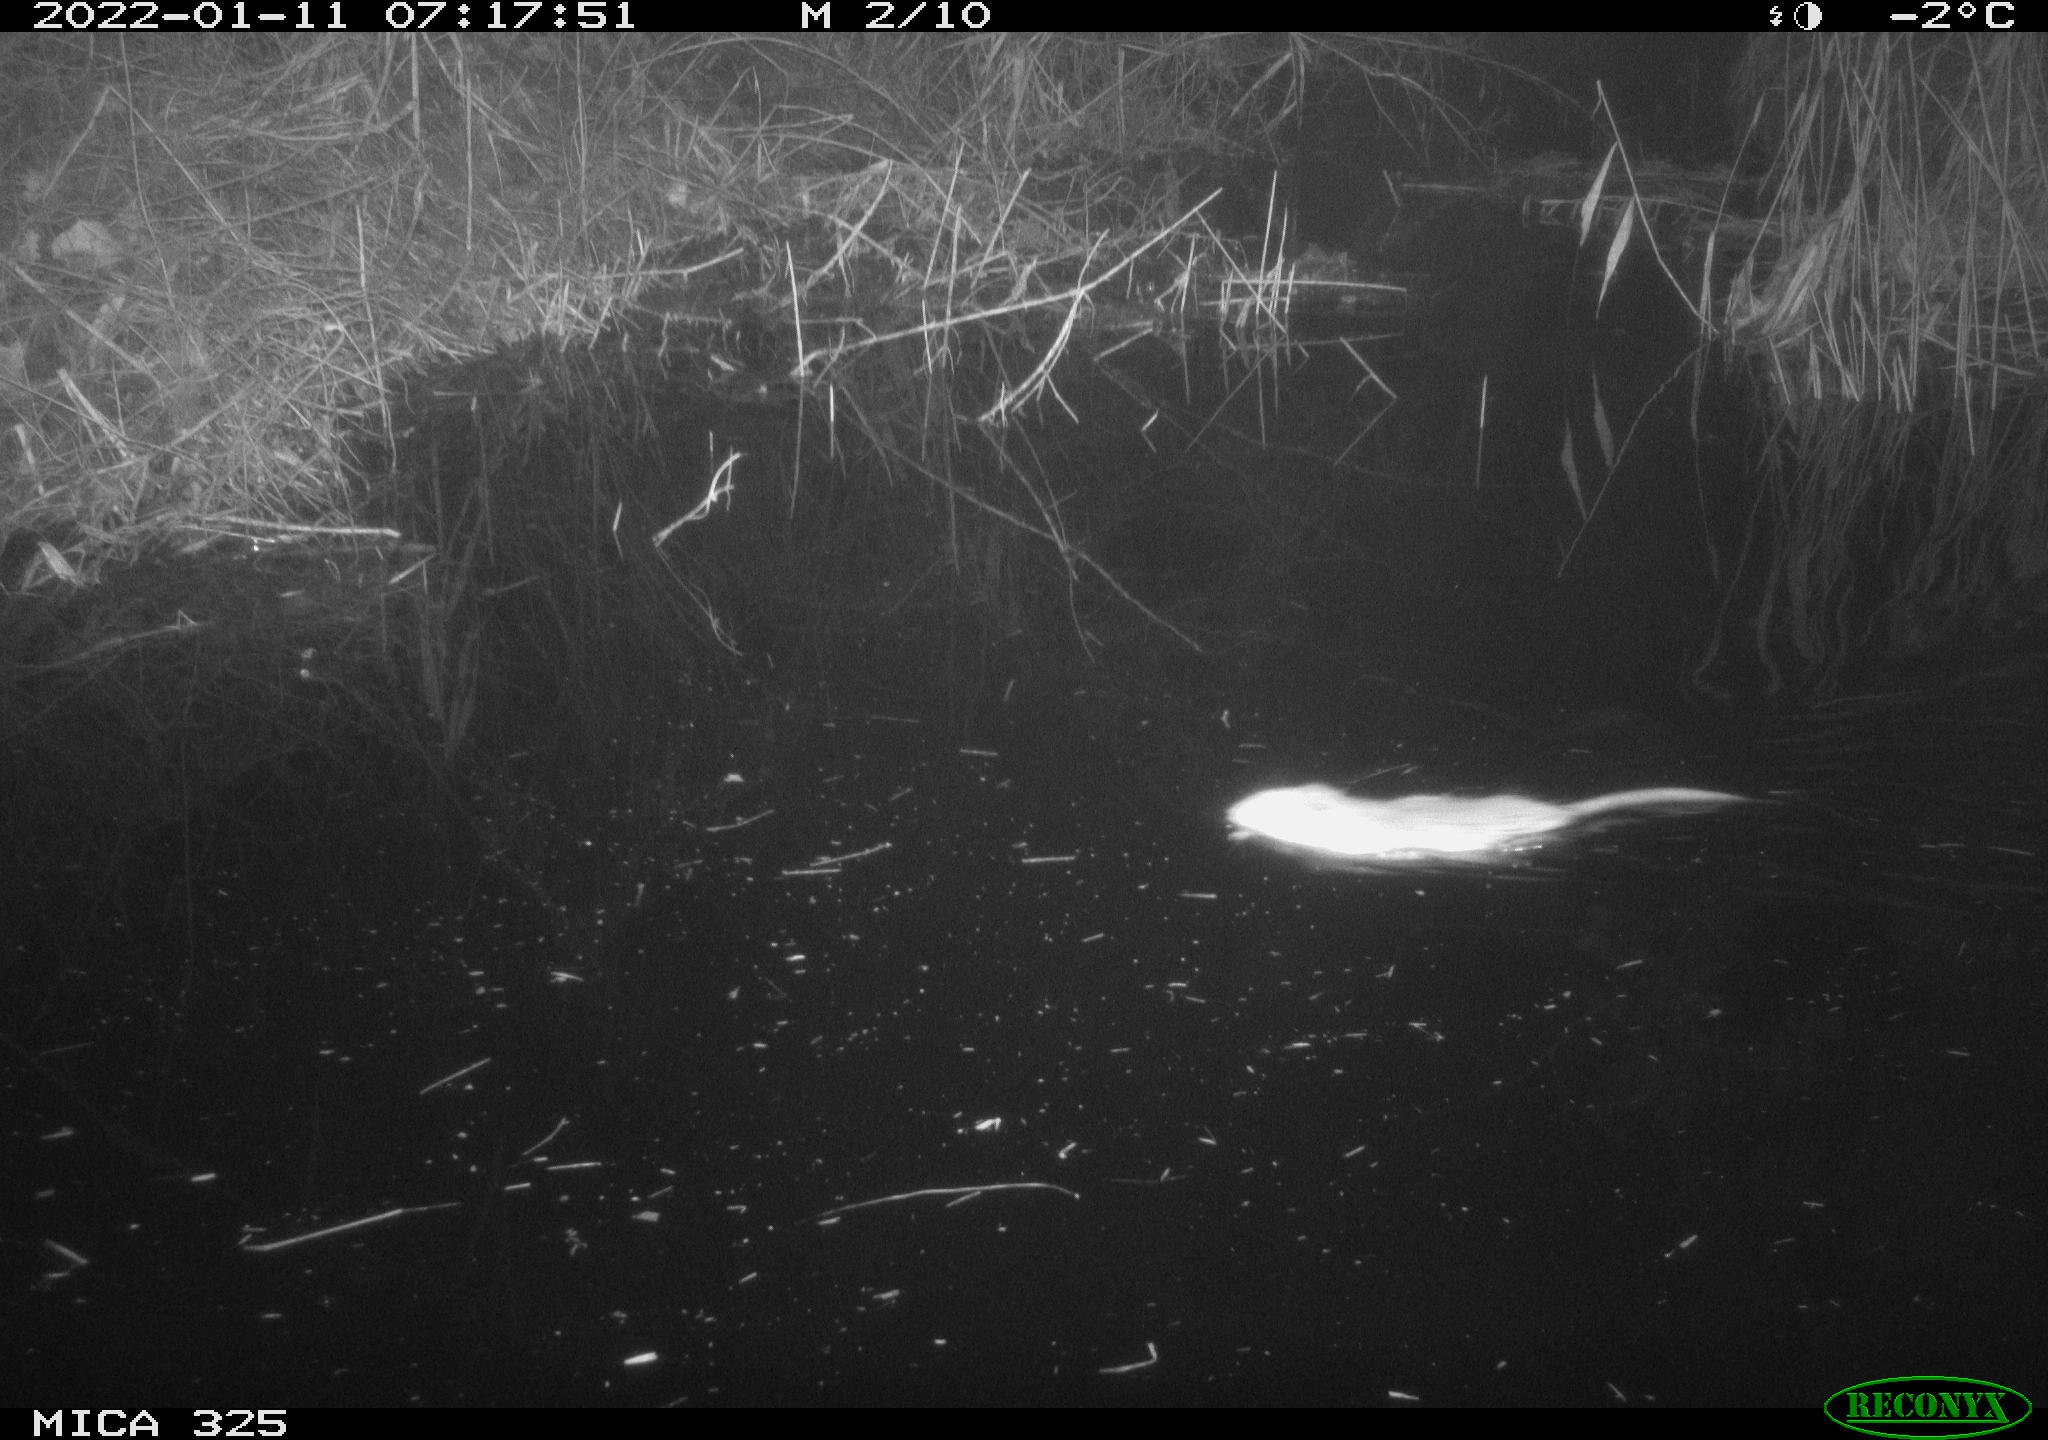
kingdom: Animalia
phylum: Chordata
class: Mammalia
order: Rodentia
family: Cricetidae
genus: Ondatra
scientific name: Ondatra zibethicus
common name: Muskrat
